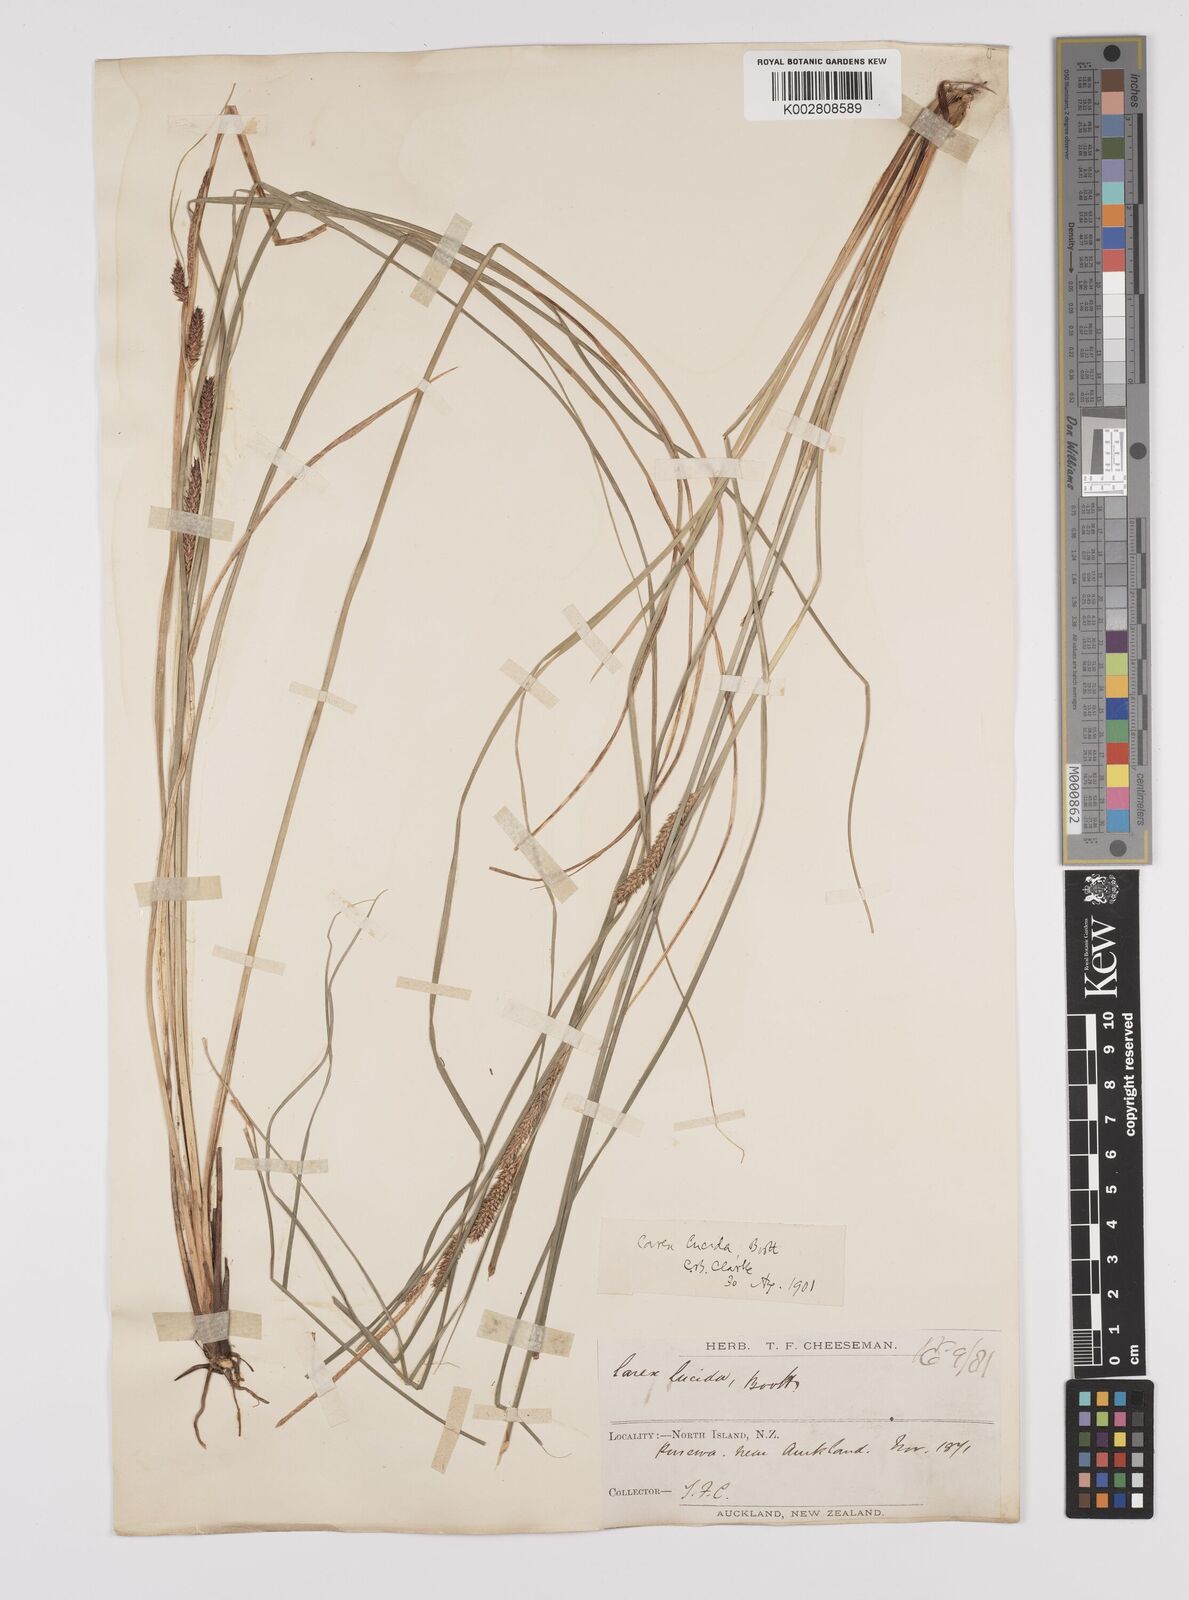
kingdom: Plantae
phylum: Tracheophyta
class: Liliopsida
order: Poales
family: Cyperaceae
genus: Carex
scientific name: Carex flagellifera
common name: Glen murray tussock
